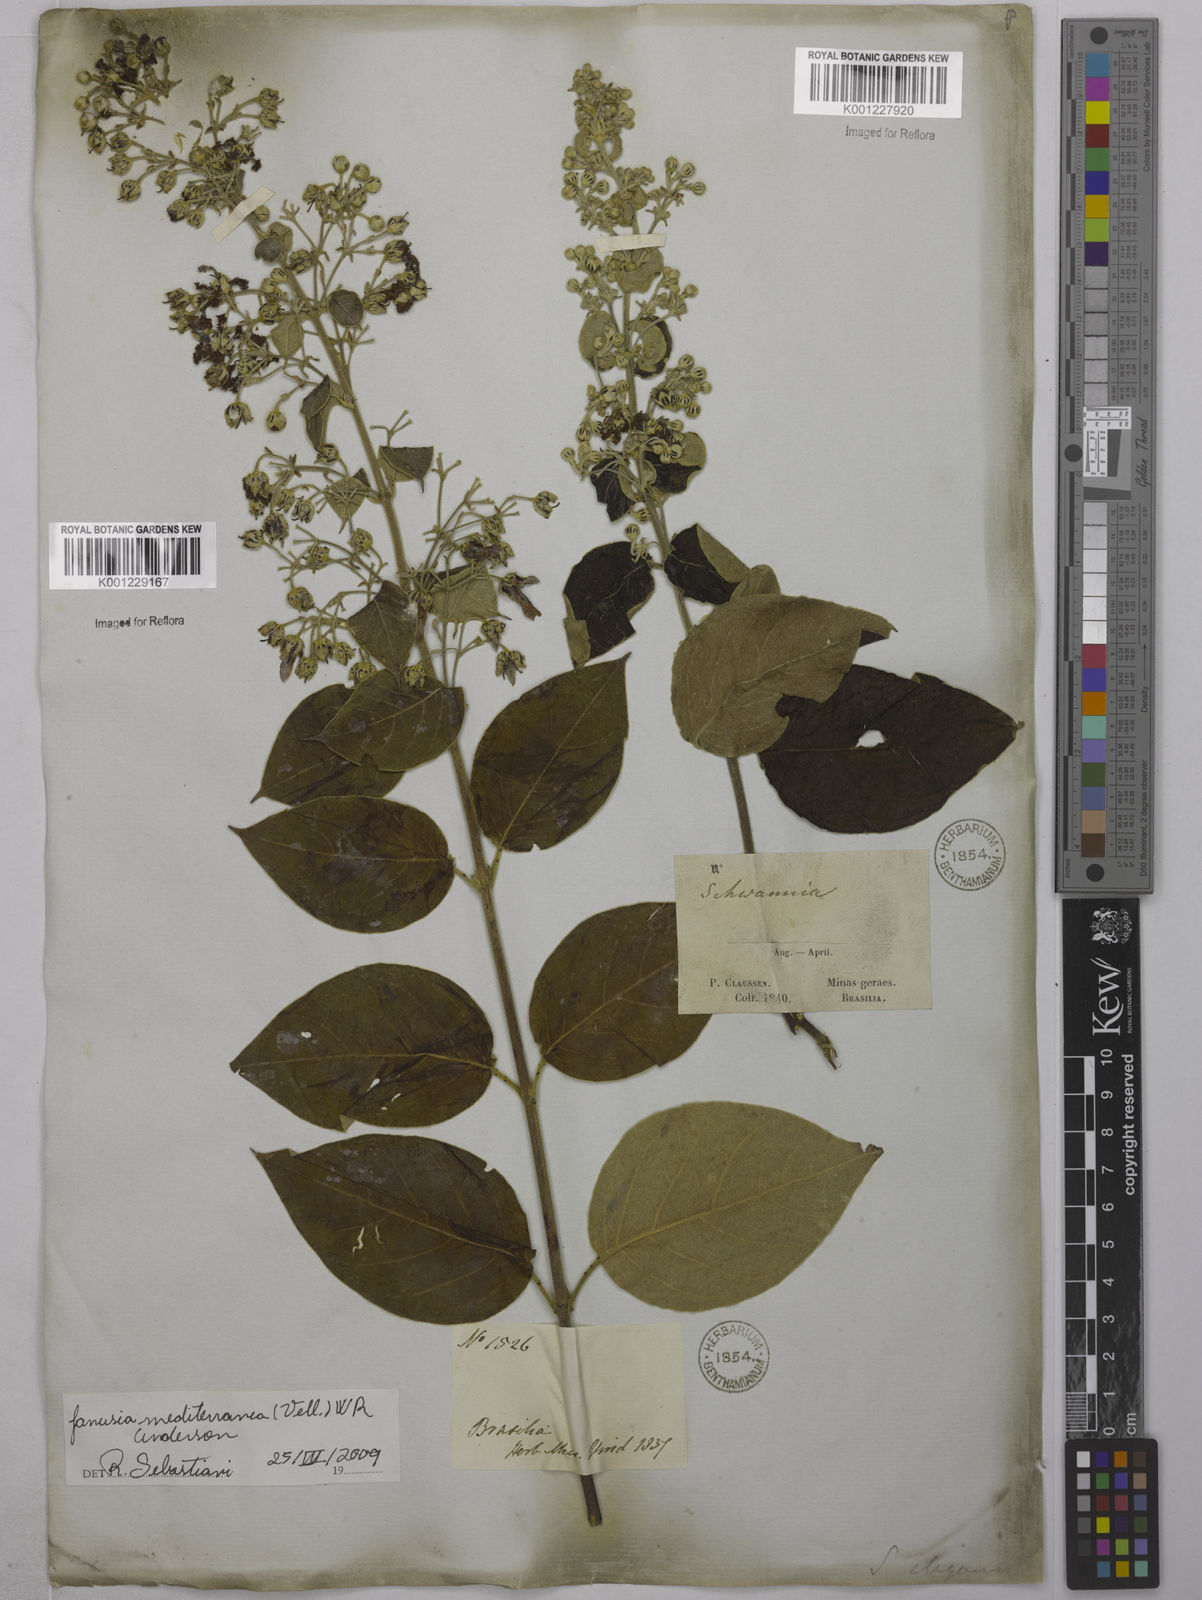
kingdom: Plantae
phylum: Tracheophyta
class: Magnoliopsida
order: Malpighiales
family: Malpighiaceae
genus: Janusia
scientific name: Janusia mediterranea
